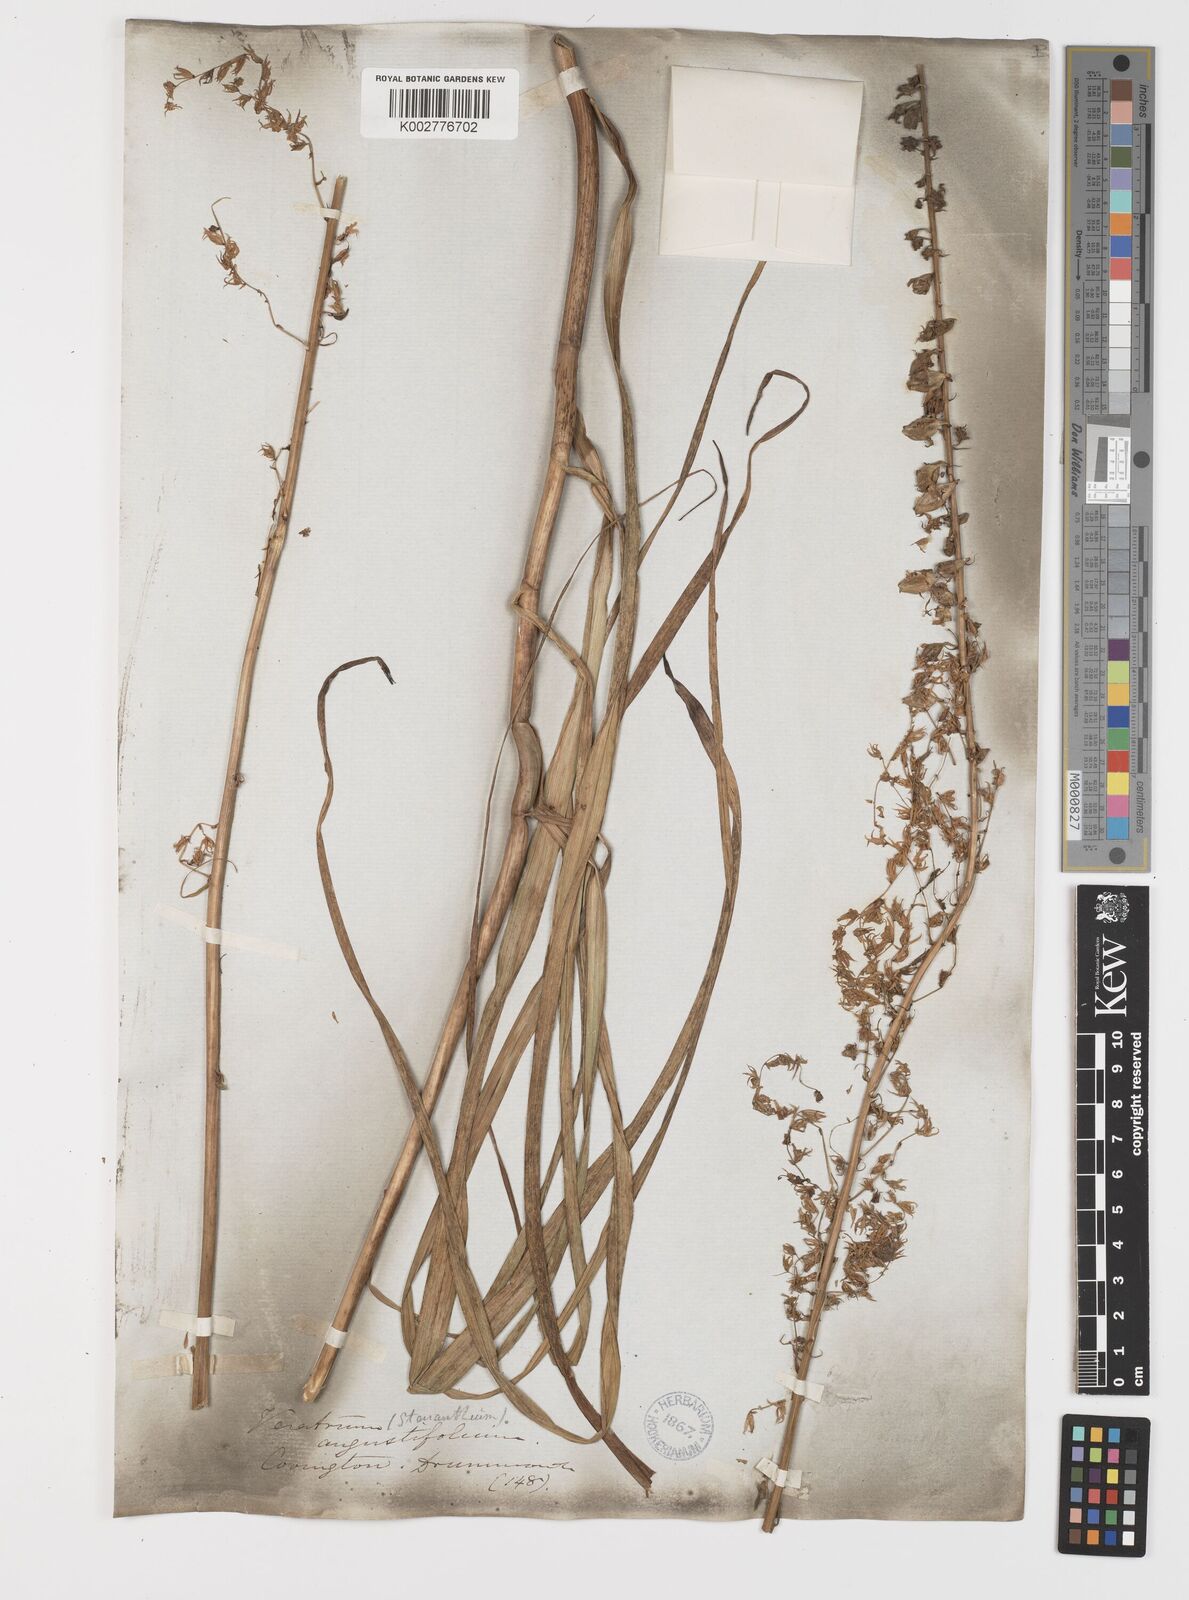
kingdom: Plantae
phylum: Tracheophyta
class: Liliopsida
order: Liliales
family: Melanthiaceae
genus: Stenanthium
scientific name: Stenanthium gramineum
